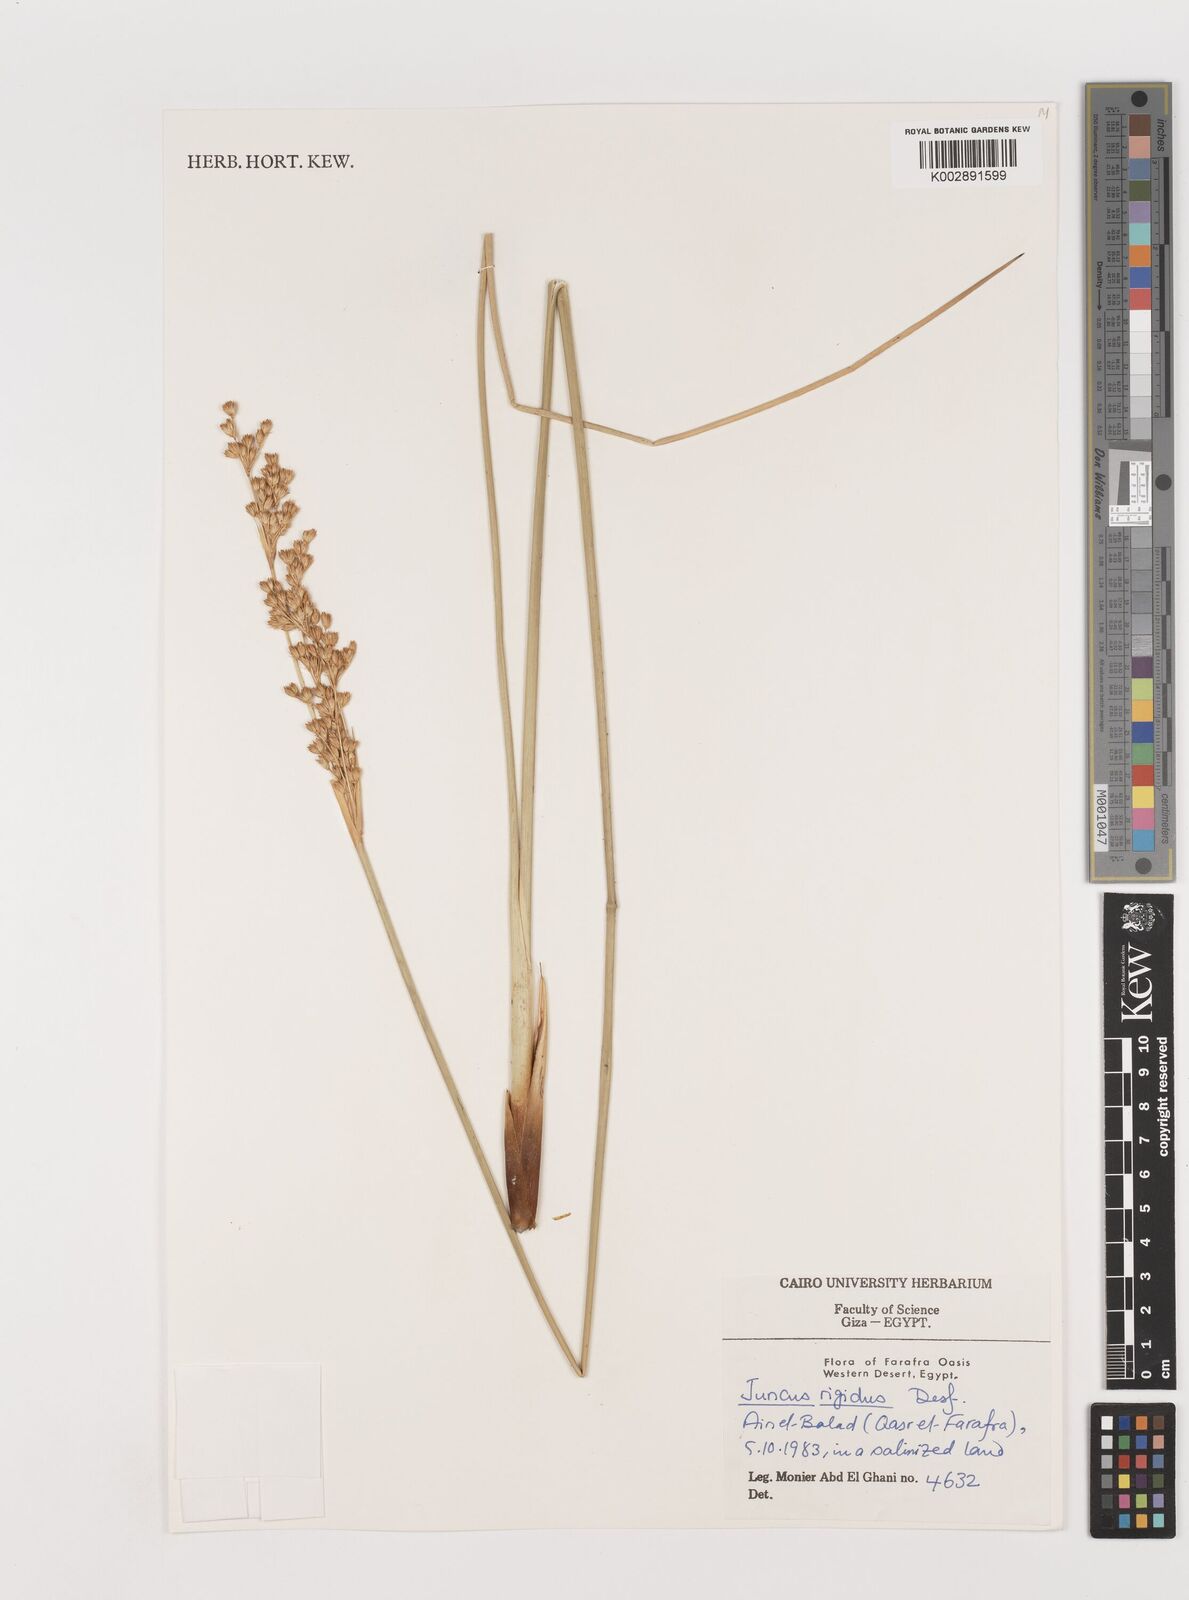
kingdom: Plantae
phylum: Tracheophyta
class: Liliopsida
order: Poales
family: Juncaceae
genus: Juncus
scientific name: Juncus rigidus
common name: Hard sea rush
